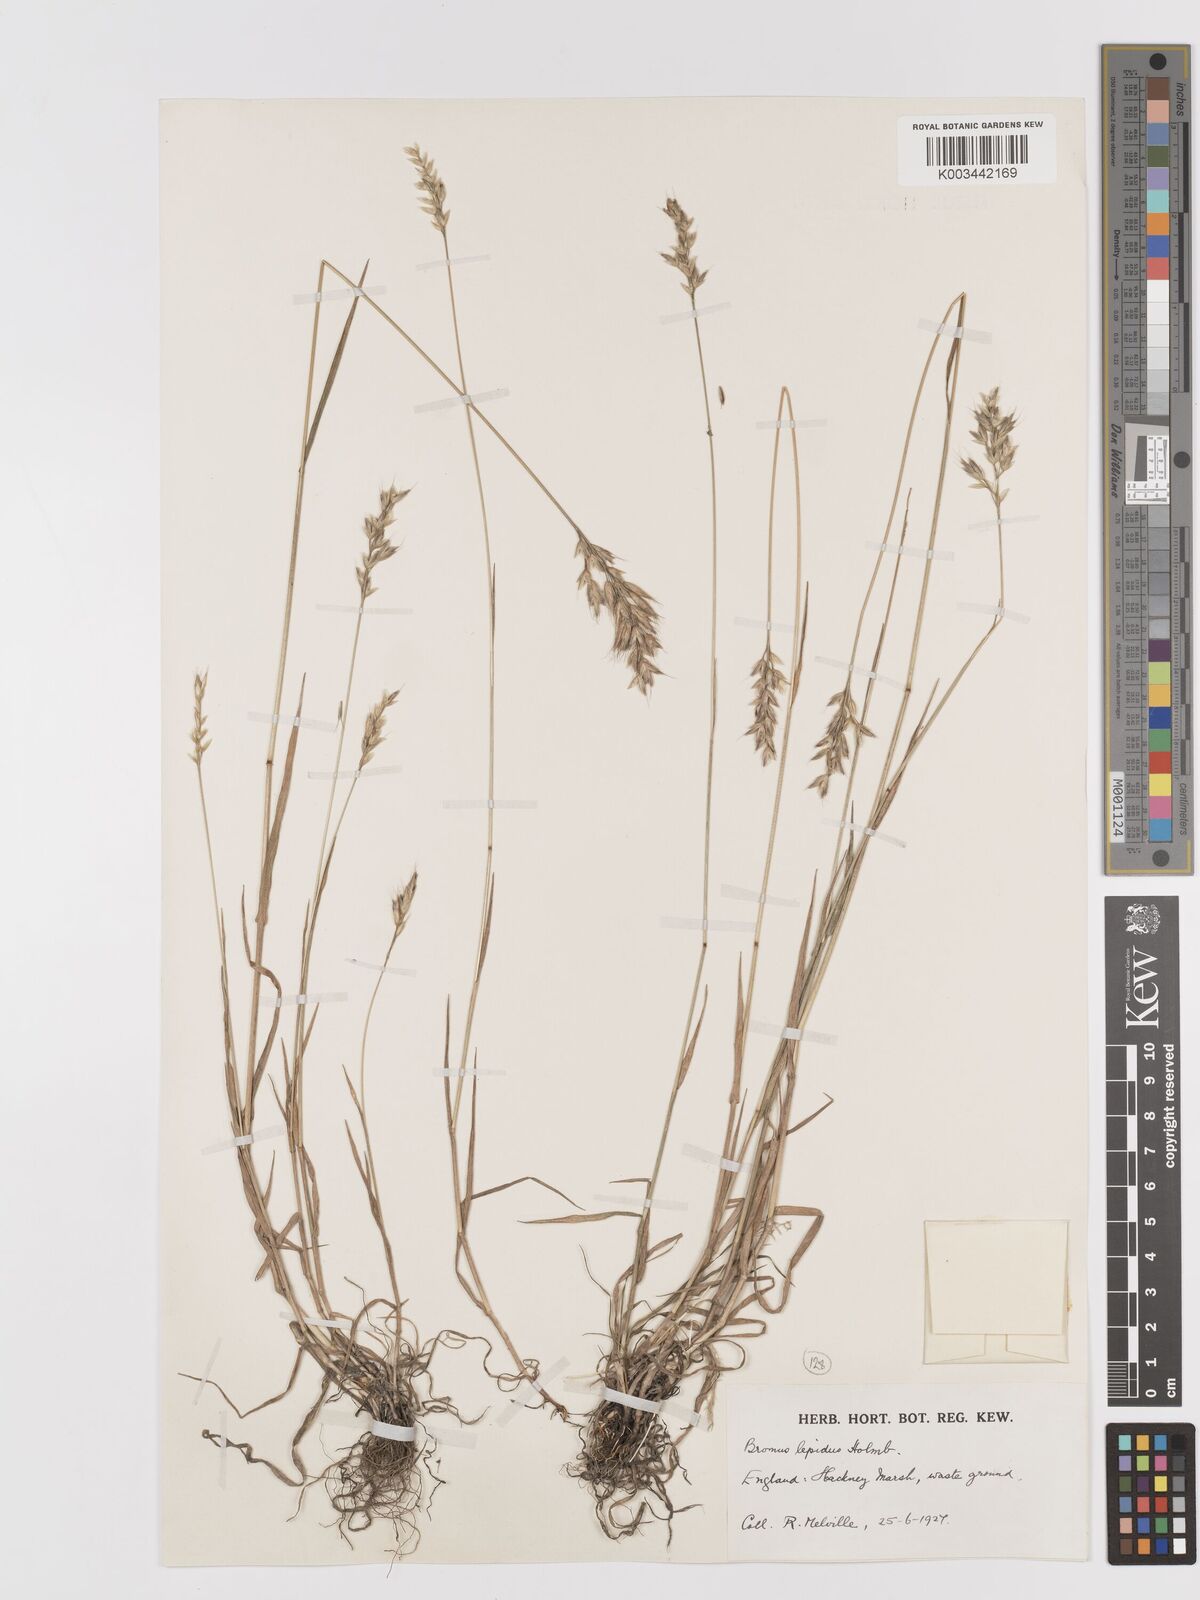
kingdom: Plantae
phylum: Tracheophyta
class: Liliopsida
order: Poales
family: Poaceae
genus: Bromus
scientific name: Bromus lepidus
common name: Slender soft-brome
